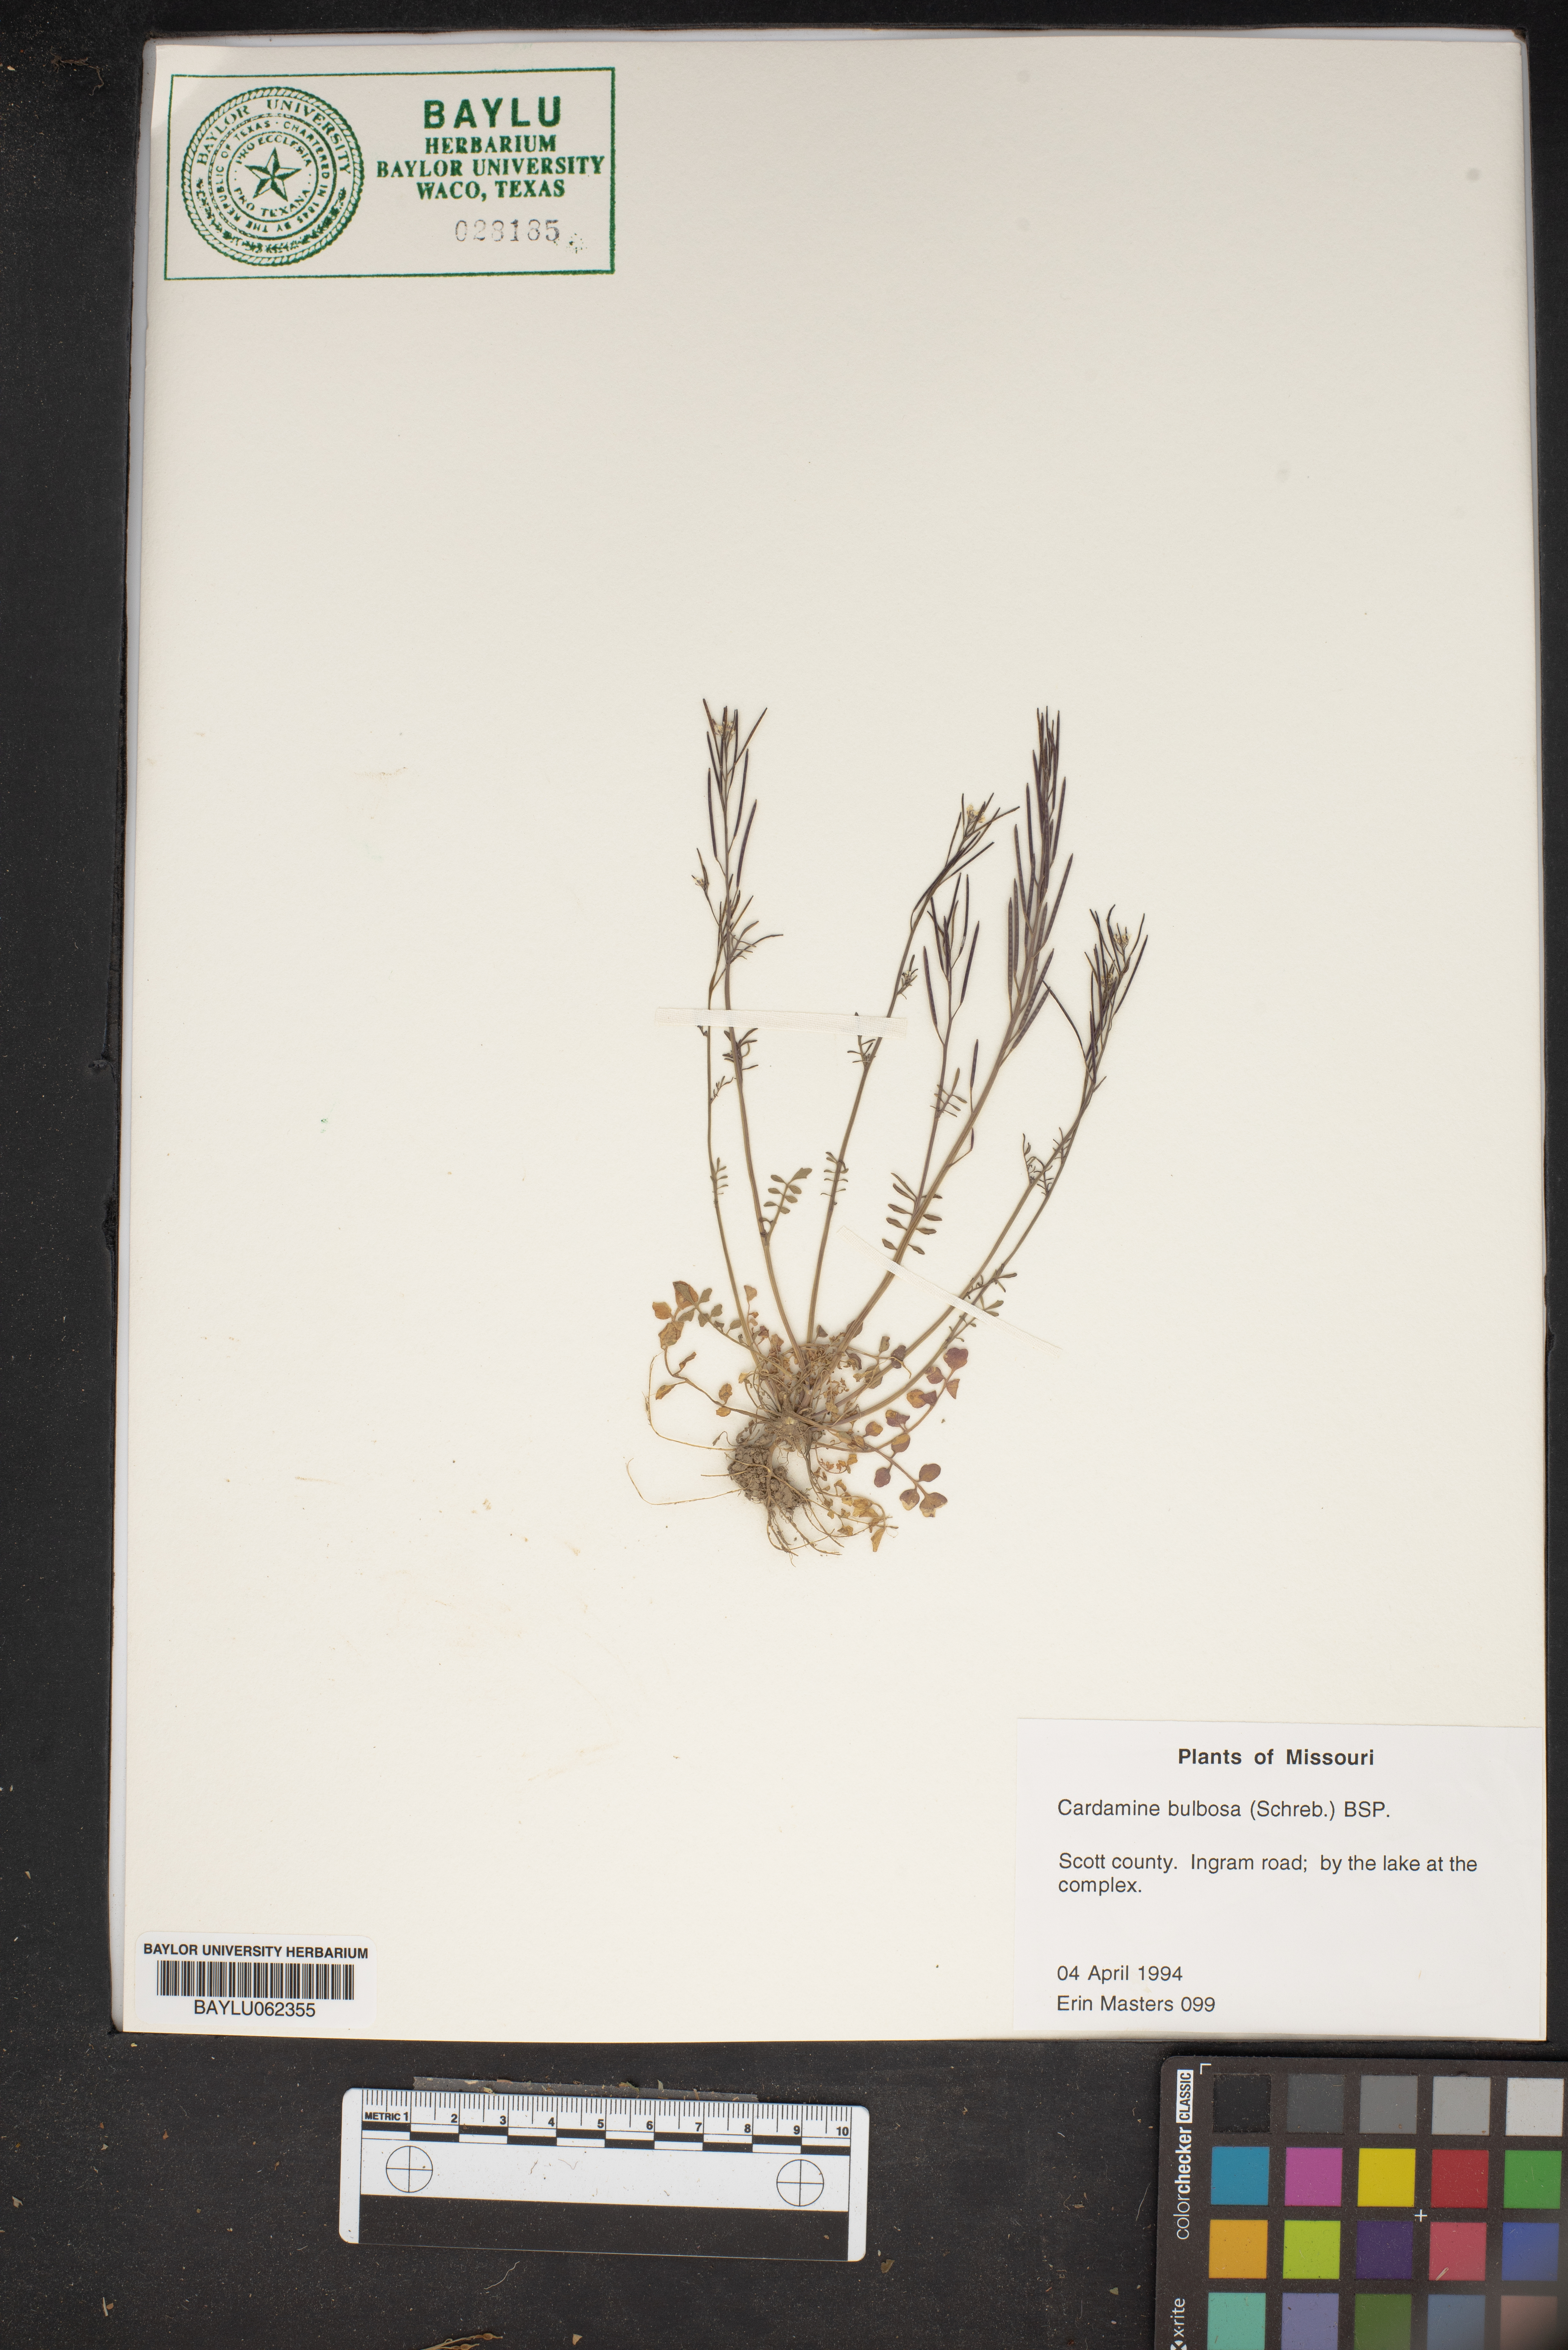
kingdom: Plantae
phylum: Tracheophyta
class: Magnoliopsida
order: Brassicales
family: Brassicaceae
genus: Cardamine
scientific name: Cardamine bulbosa
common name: Spring cress
